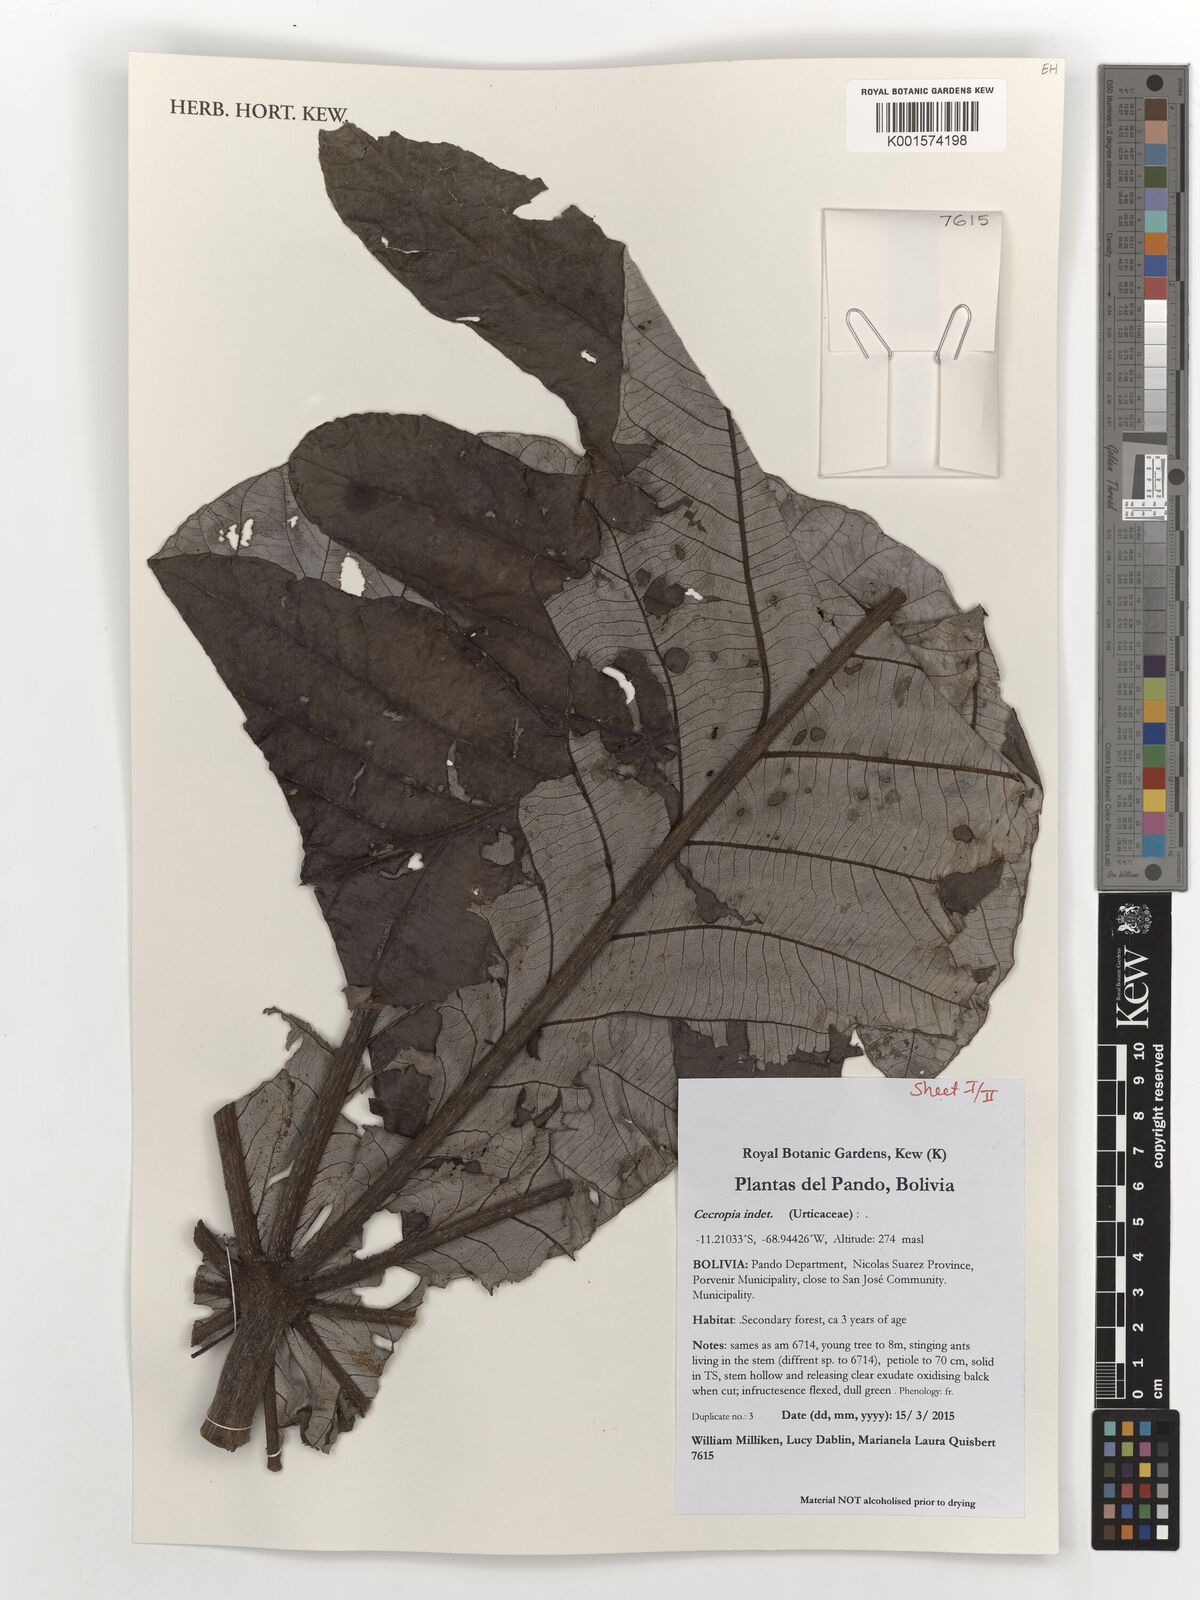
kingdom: Plantae
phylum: Tracheophyta
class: Magnoliopsida
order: Rosales
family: Urticaceae
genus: Cecropia
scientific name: Cecropia
